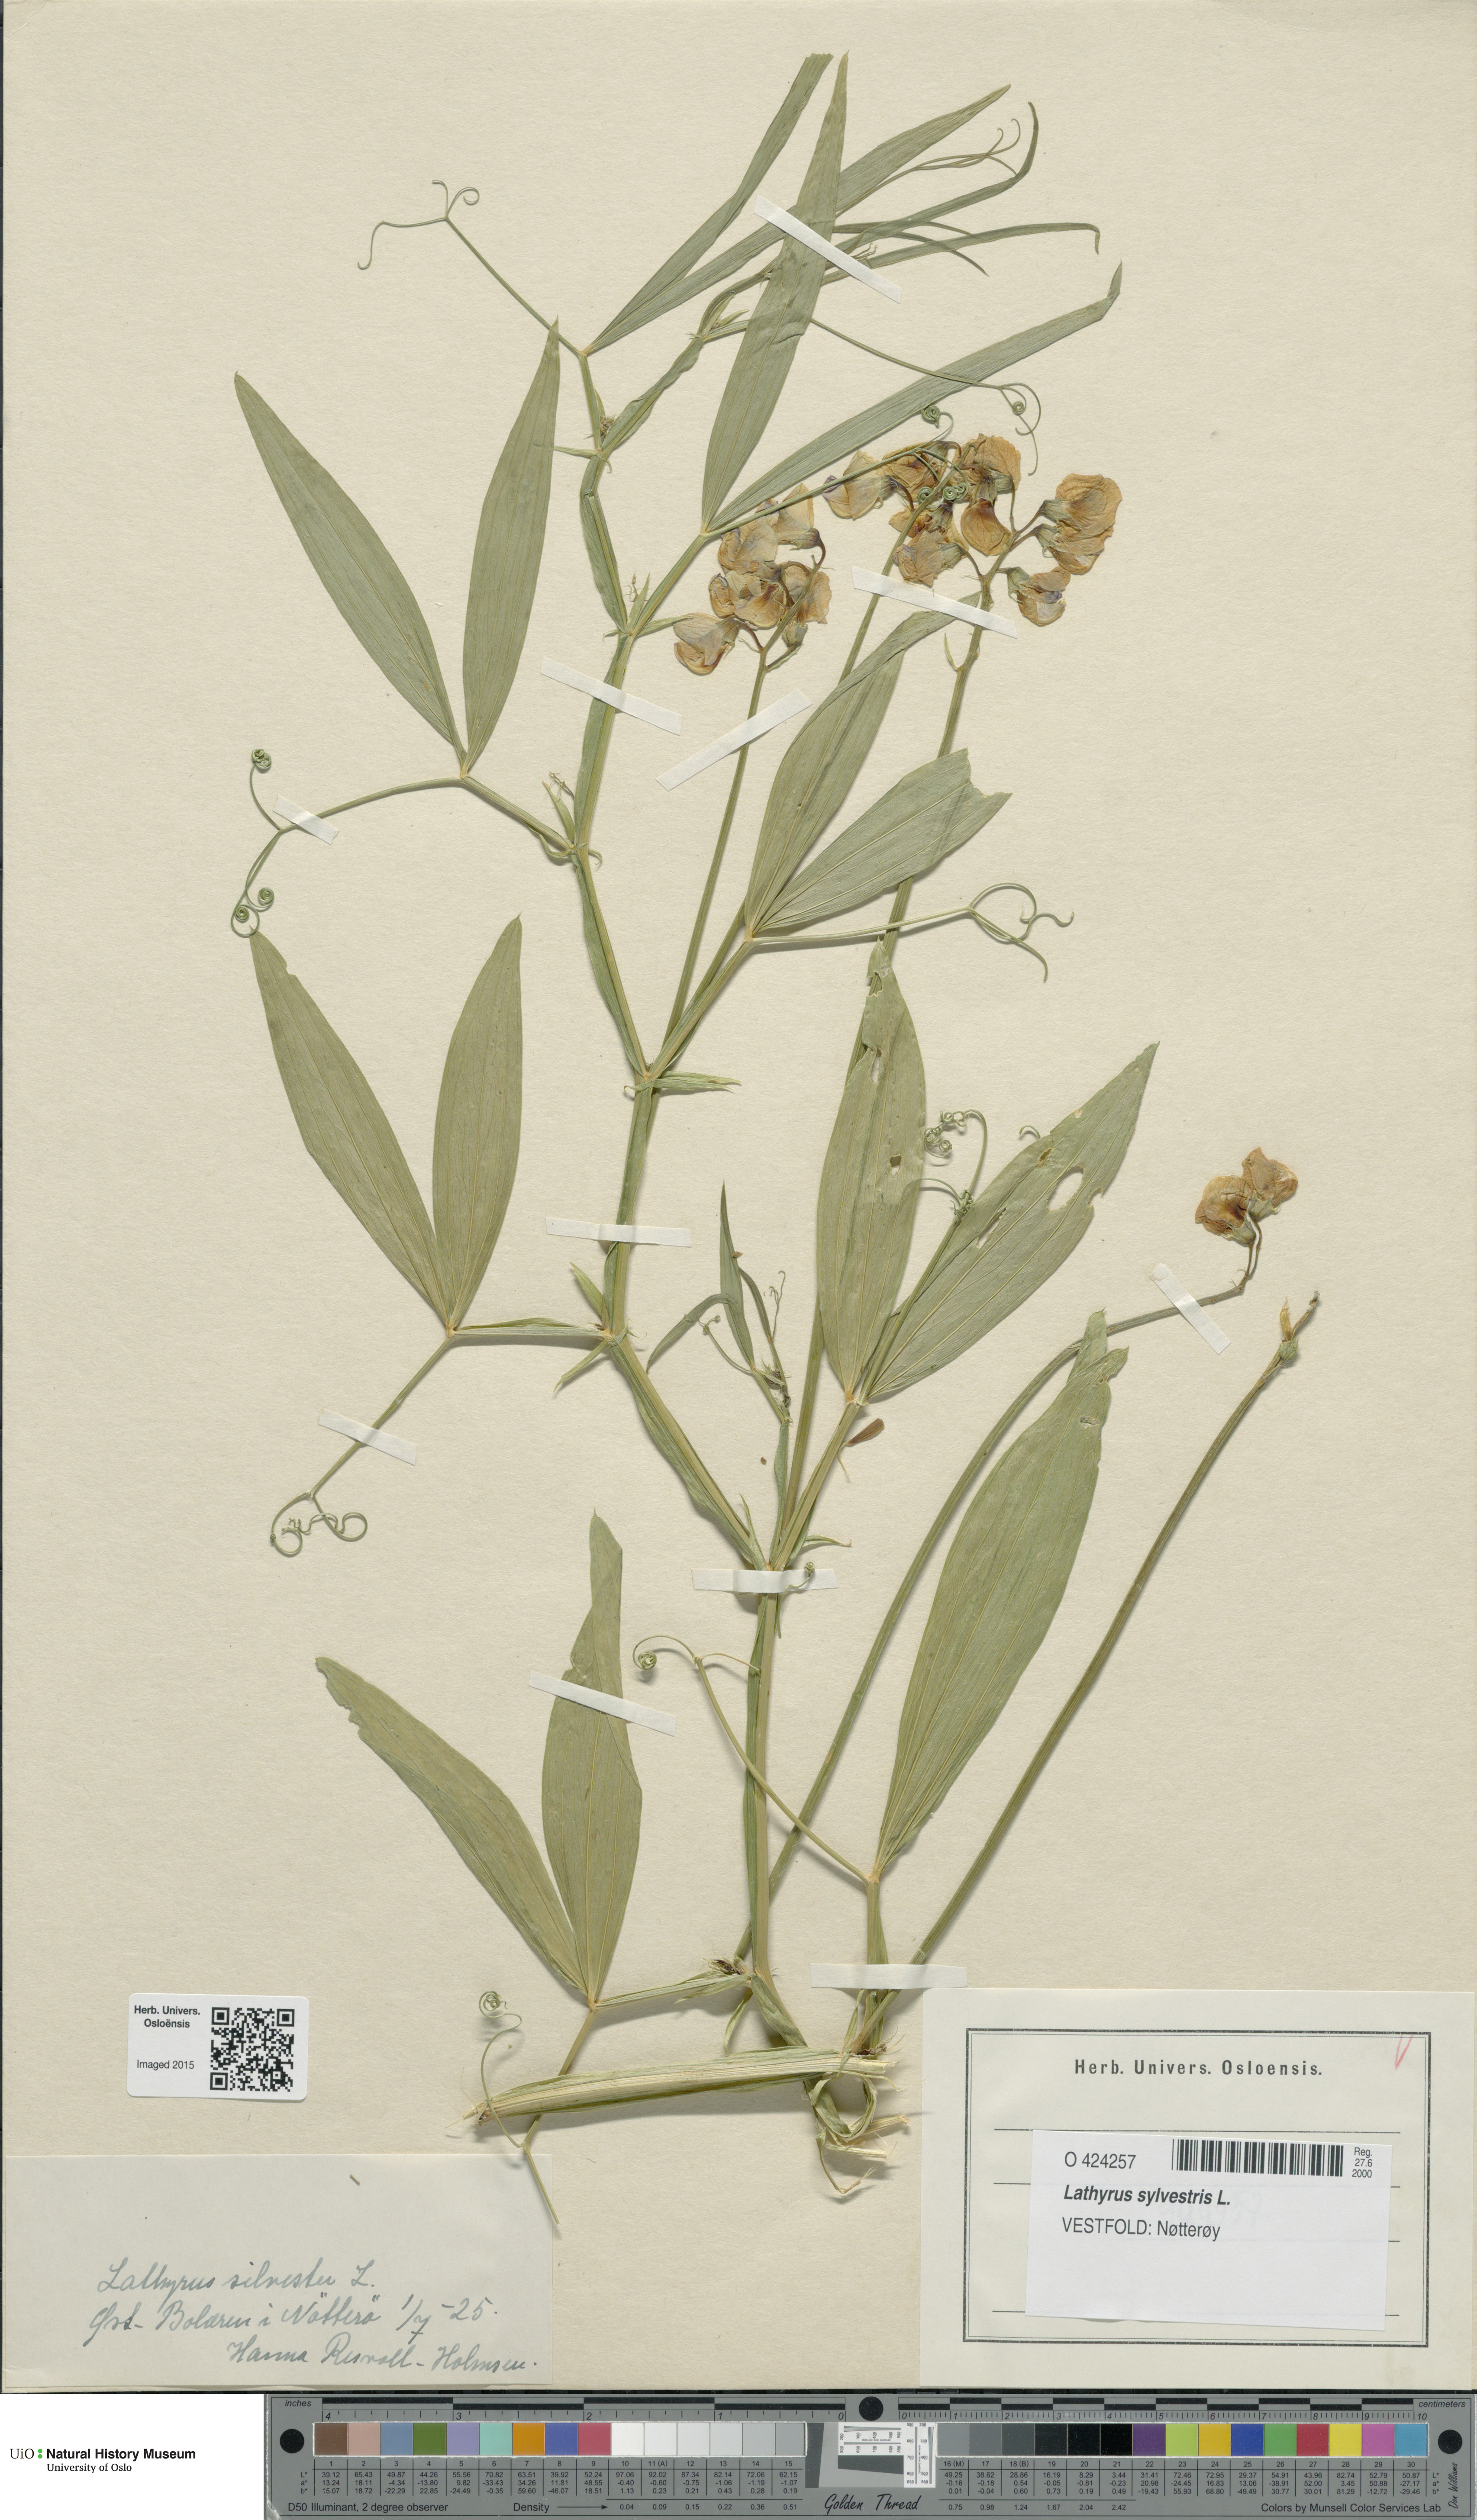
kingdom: Plantae
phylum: Tracheophyta
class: Magnoliopsida
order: Fabales
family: Fabaceae
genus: Lathyrus
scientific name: Lathyrus sylvestris
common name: Flat pea
